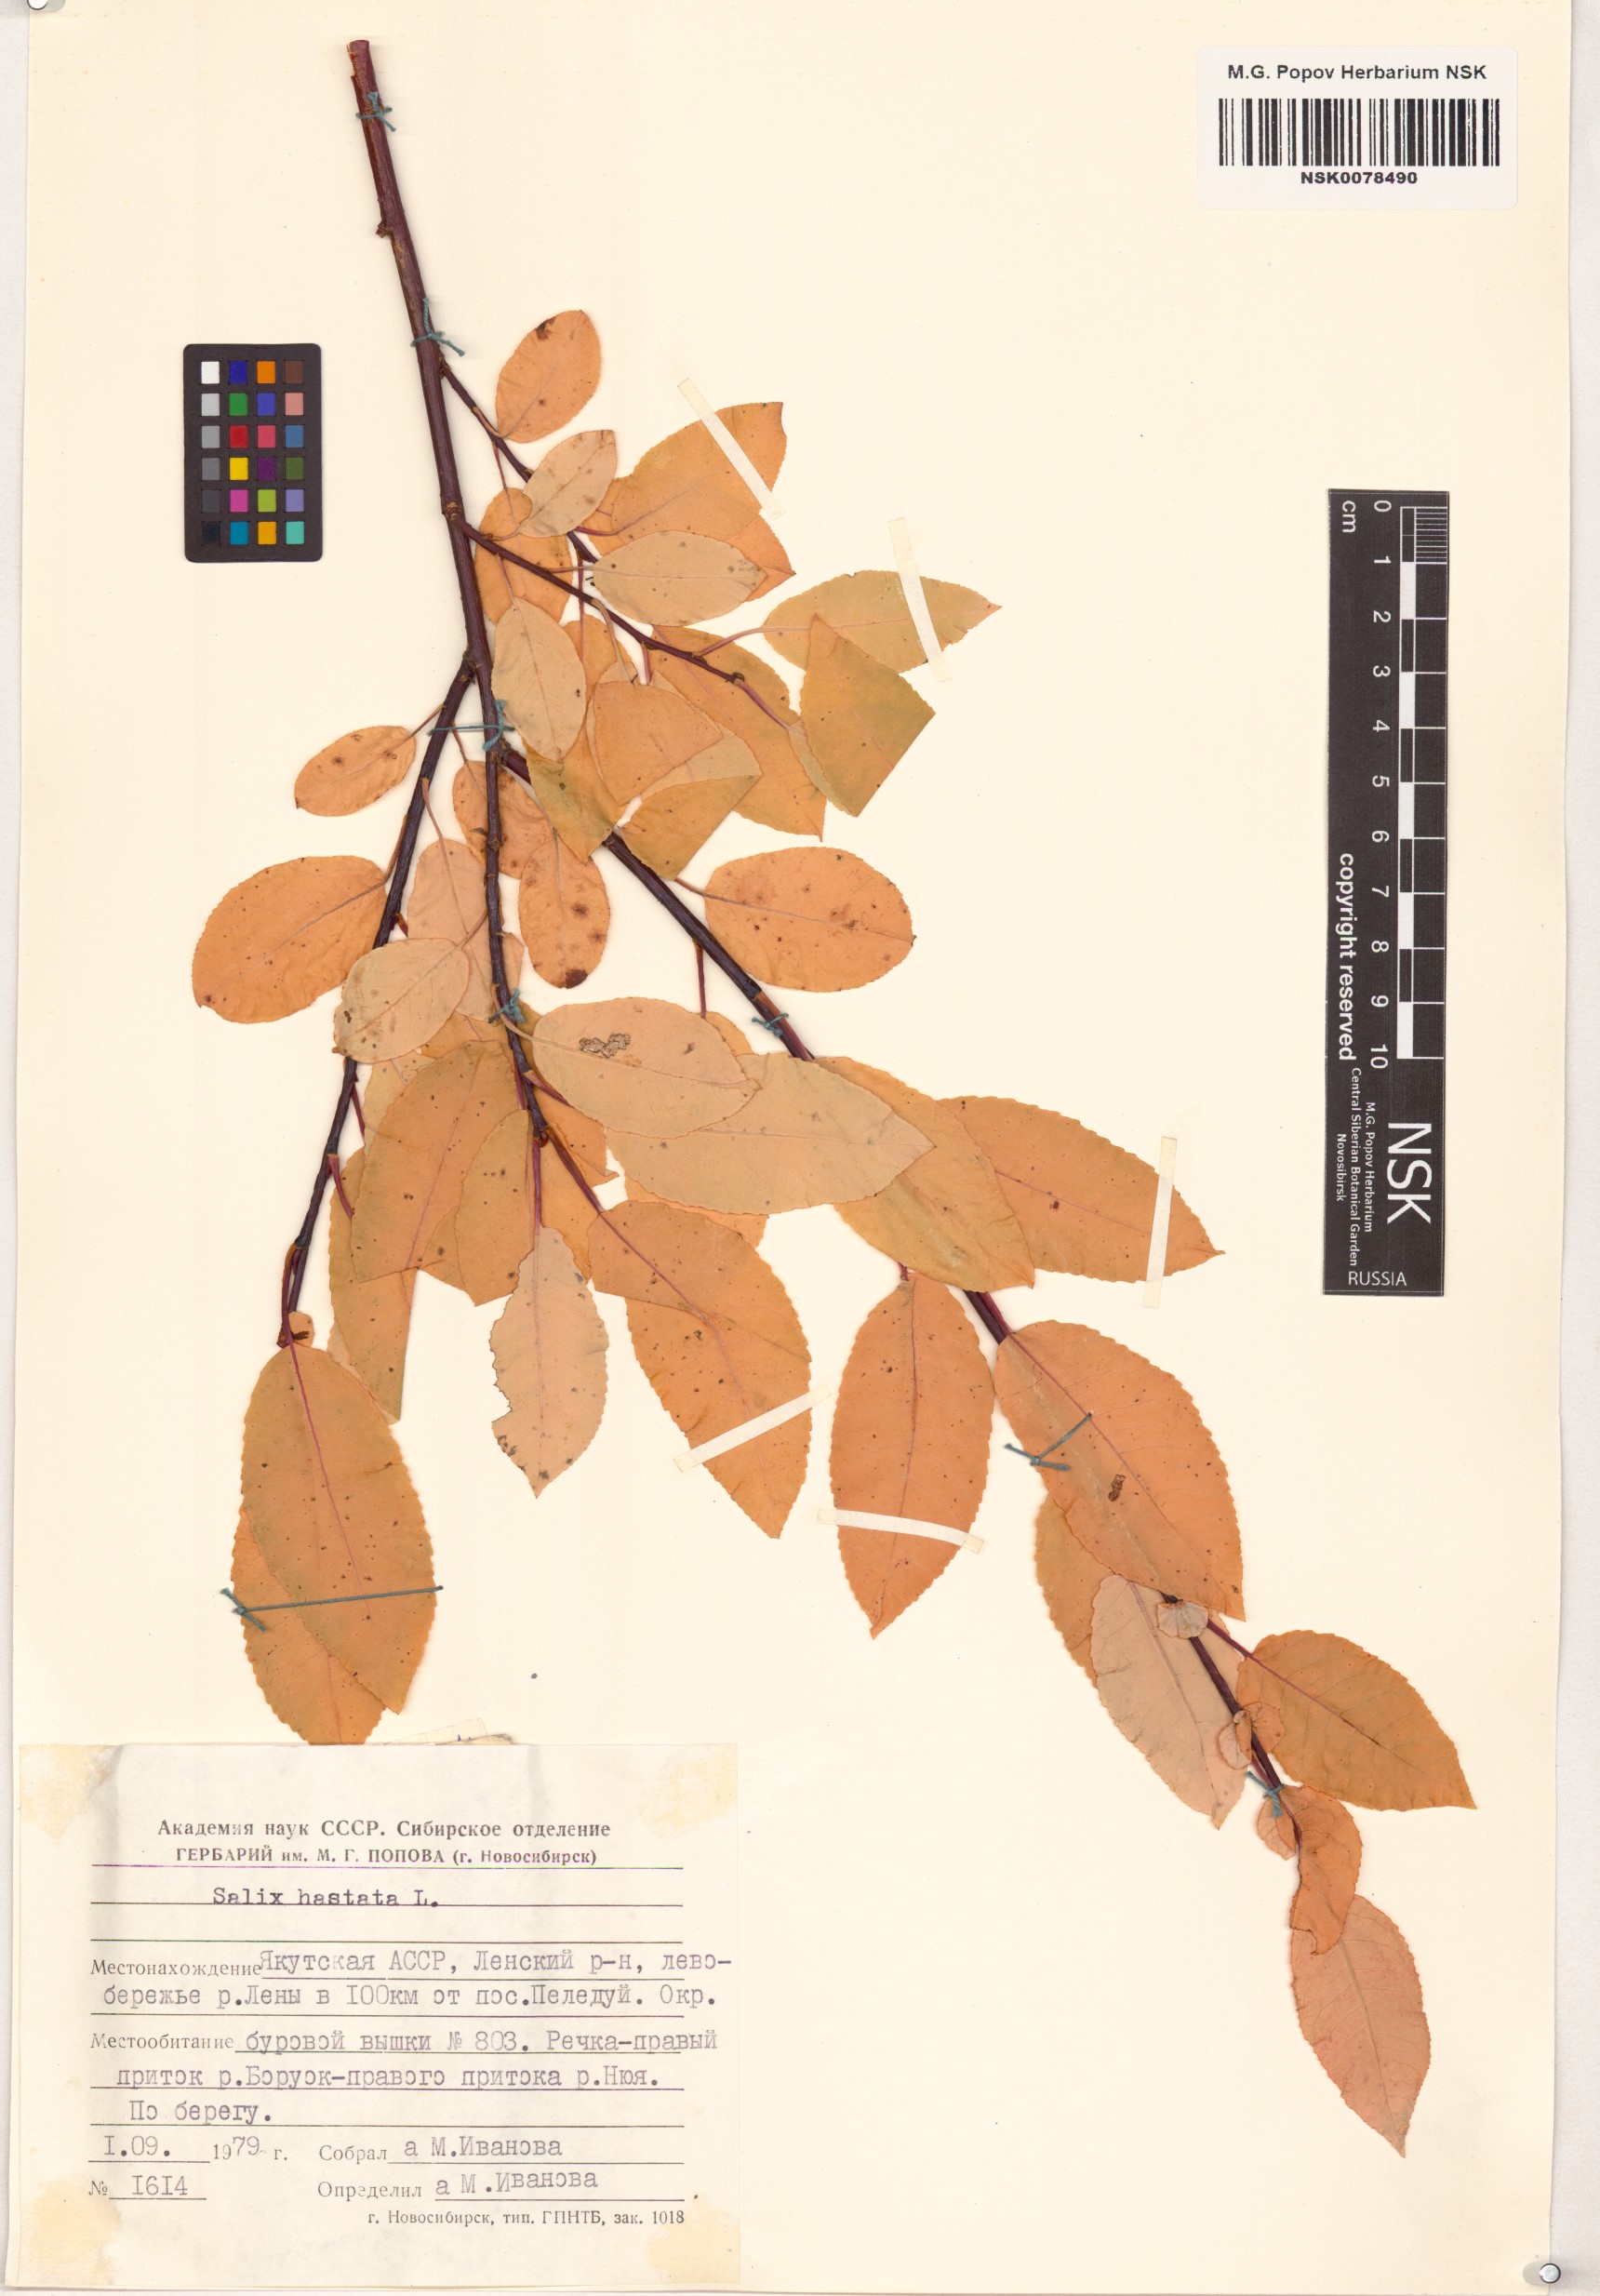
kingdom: Plantae
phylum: Tracheophyta
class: Magnoliopsida
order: Malpighiales
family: Salicaceae
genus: Salix
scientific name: Salix hastata
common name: Halberd willow
